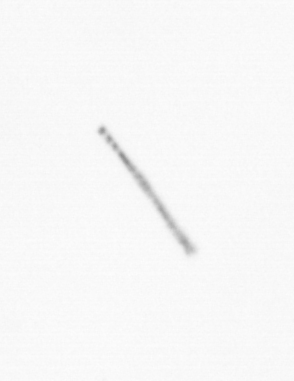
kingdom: Chromista
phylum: Ochrophyta
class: Bacillariophyceae
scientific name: Bacillariophyceae
